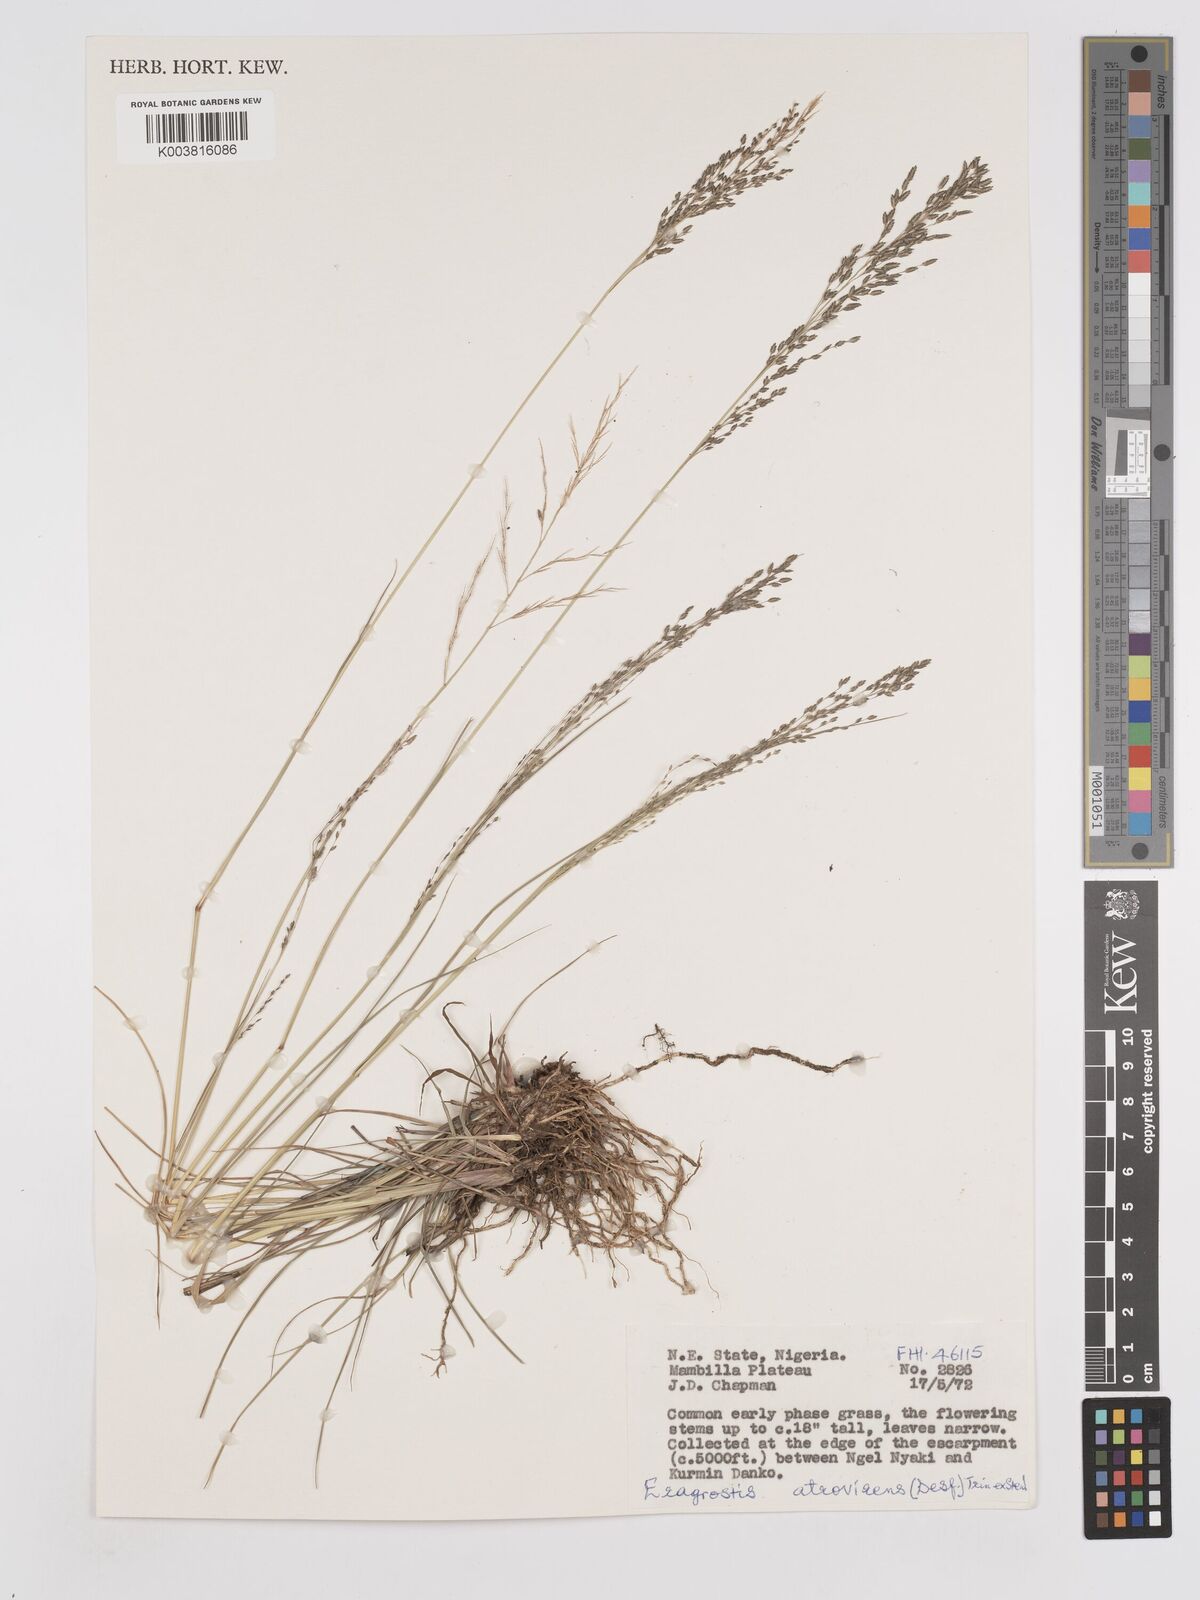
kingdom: Plantae
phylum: Tracheophyta
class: Liliopsida
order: Poales
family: Poaceae
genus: Eragrostis
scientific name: Eragrostis atrovirens
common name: Thalia lovegrass
